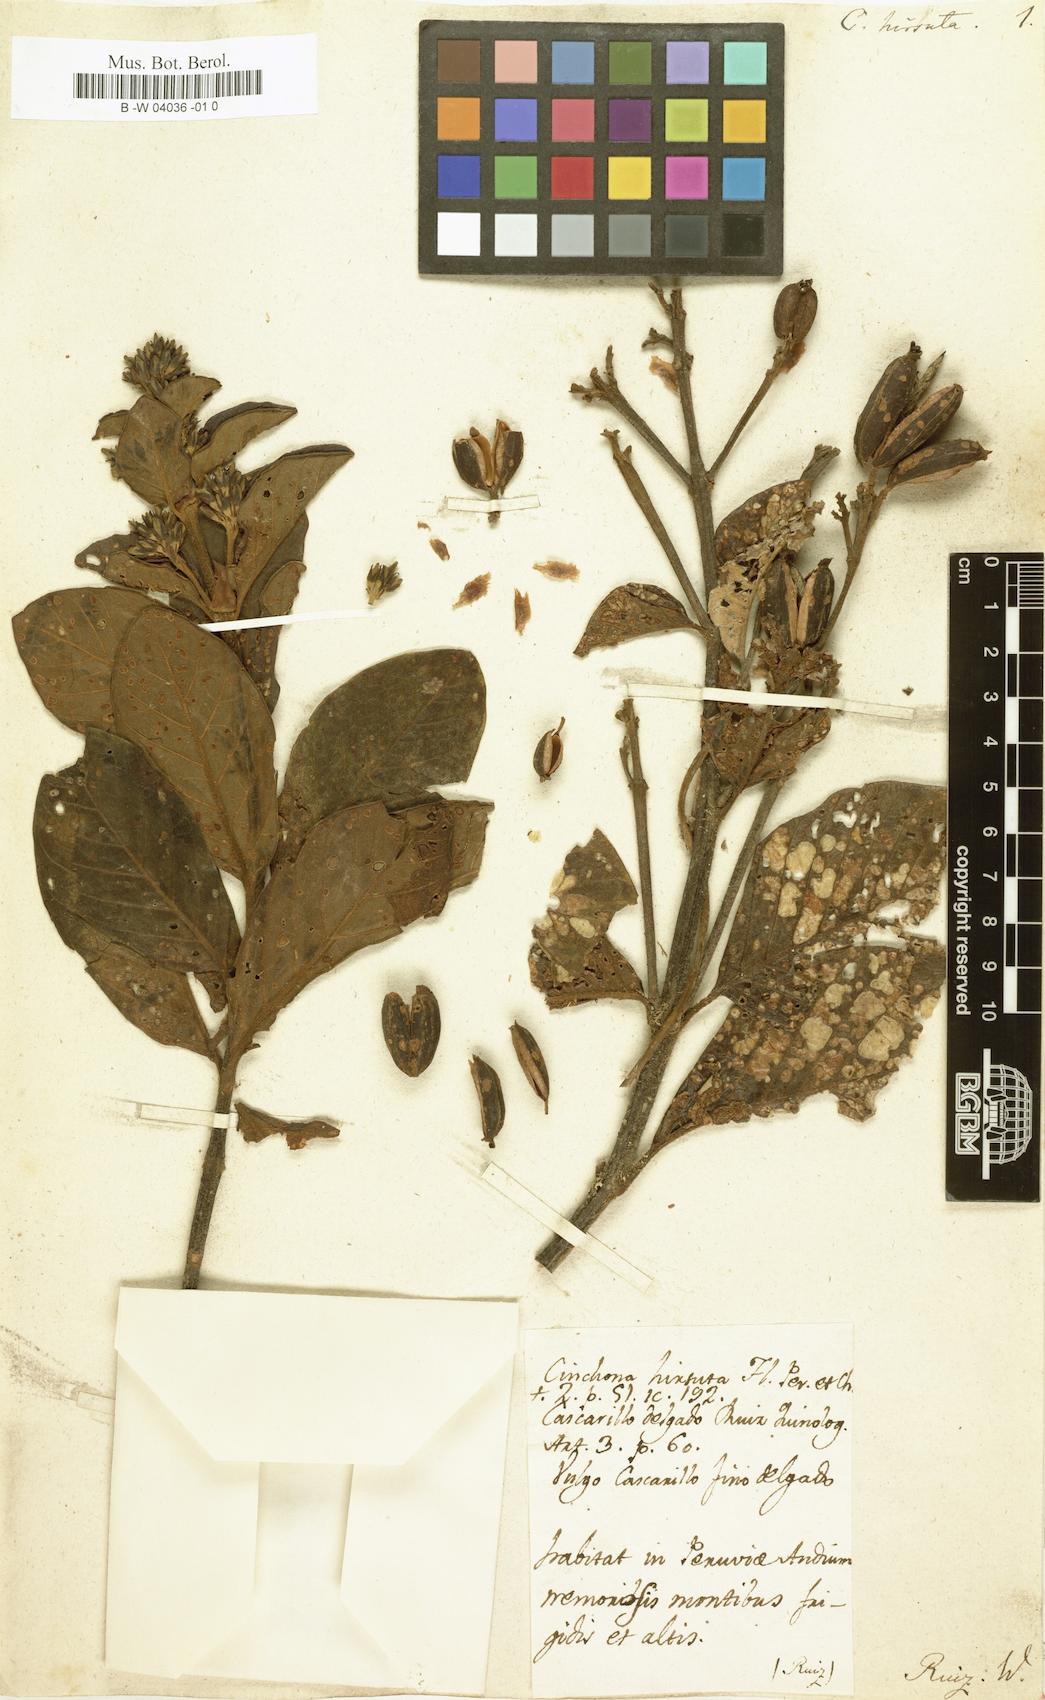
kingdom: Plantae
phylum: Tracheophyta
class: Magnoliopsida
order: Gentianales
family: Rubiaceae
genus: Cinchona
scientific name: Cinchona hirsuta
